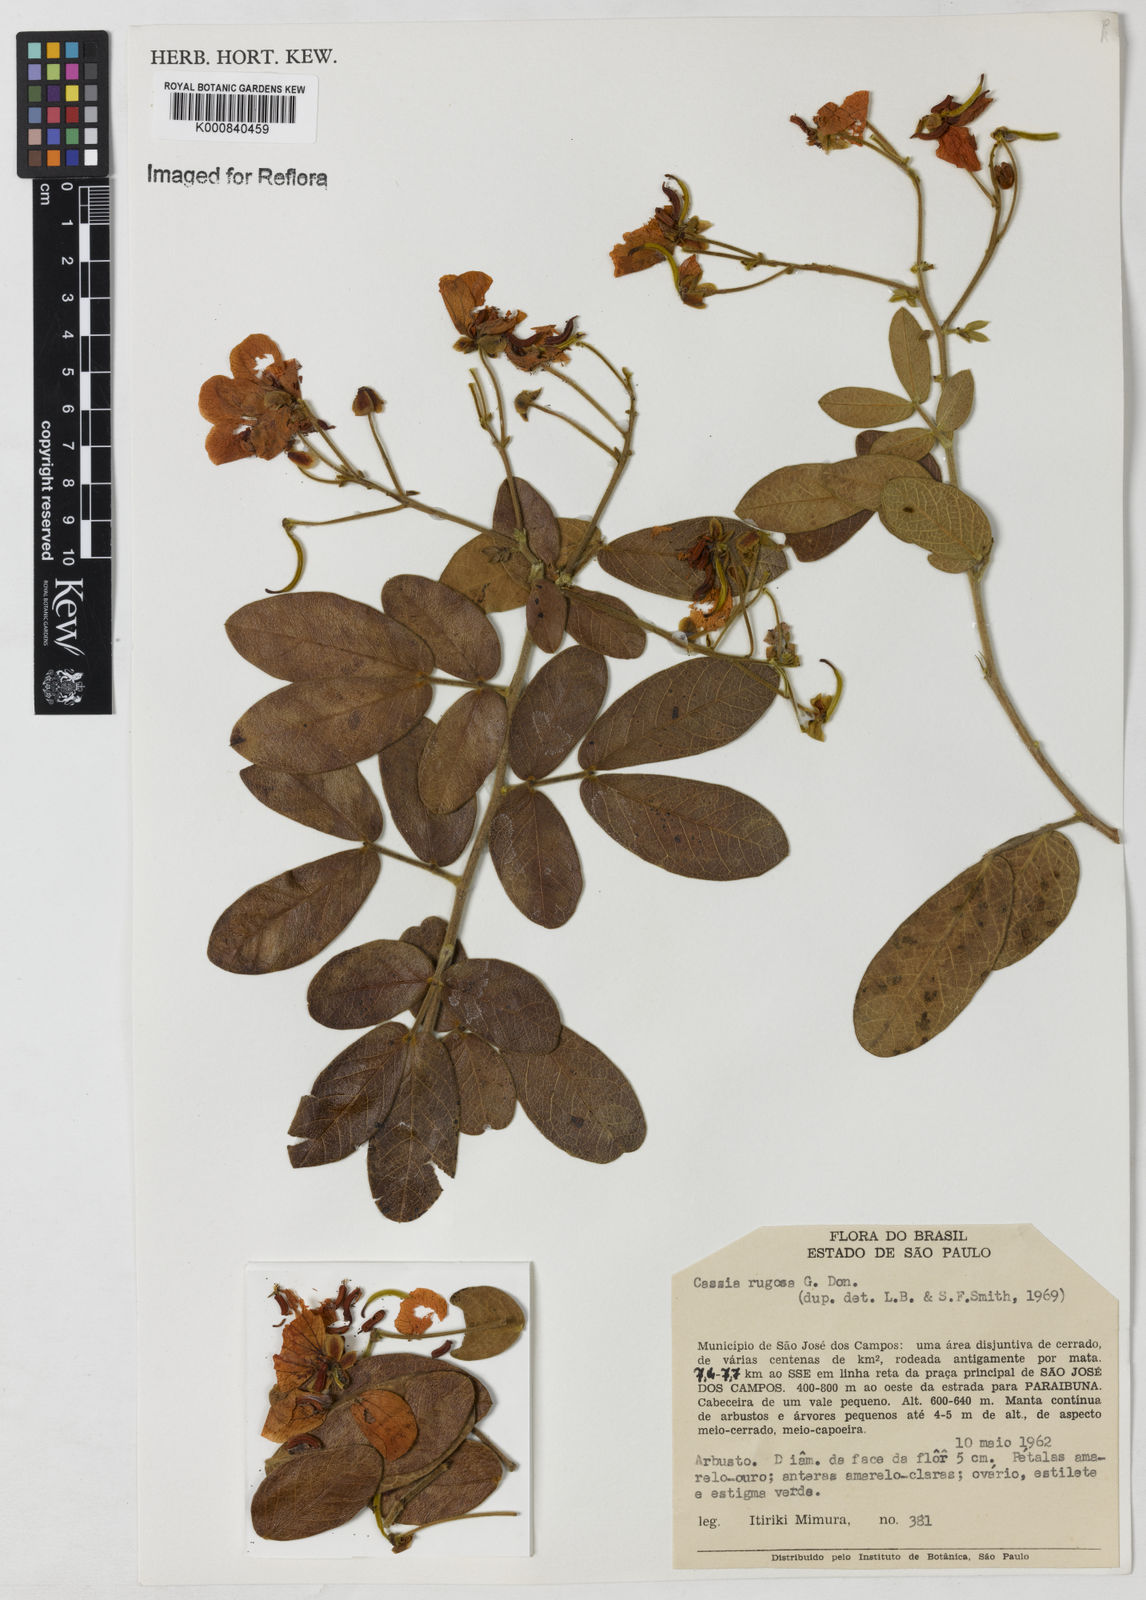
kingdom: Plantae
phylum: Tracheophyta
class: Magnoliopsida
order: Fabales
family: Fabaceae
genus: Senna
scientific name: Senna rugosa
